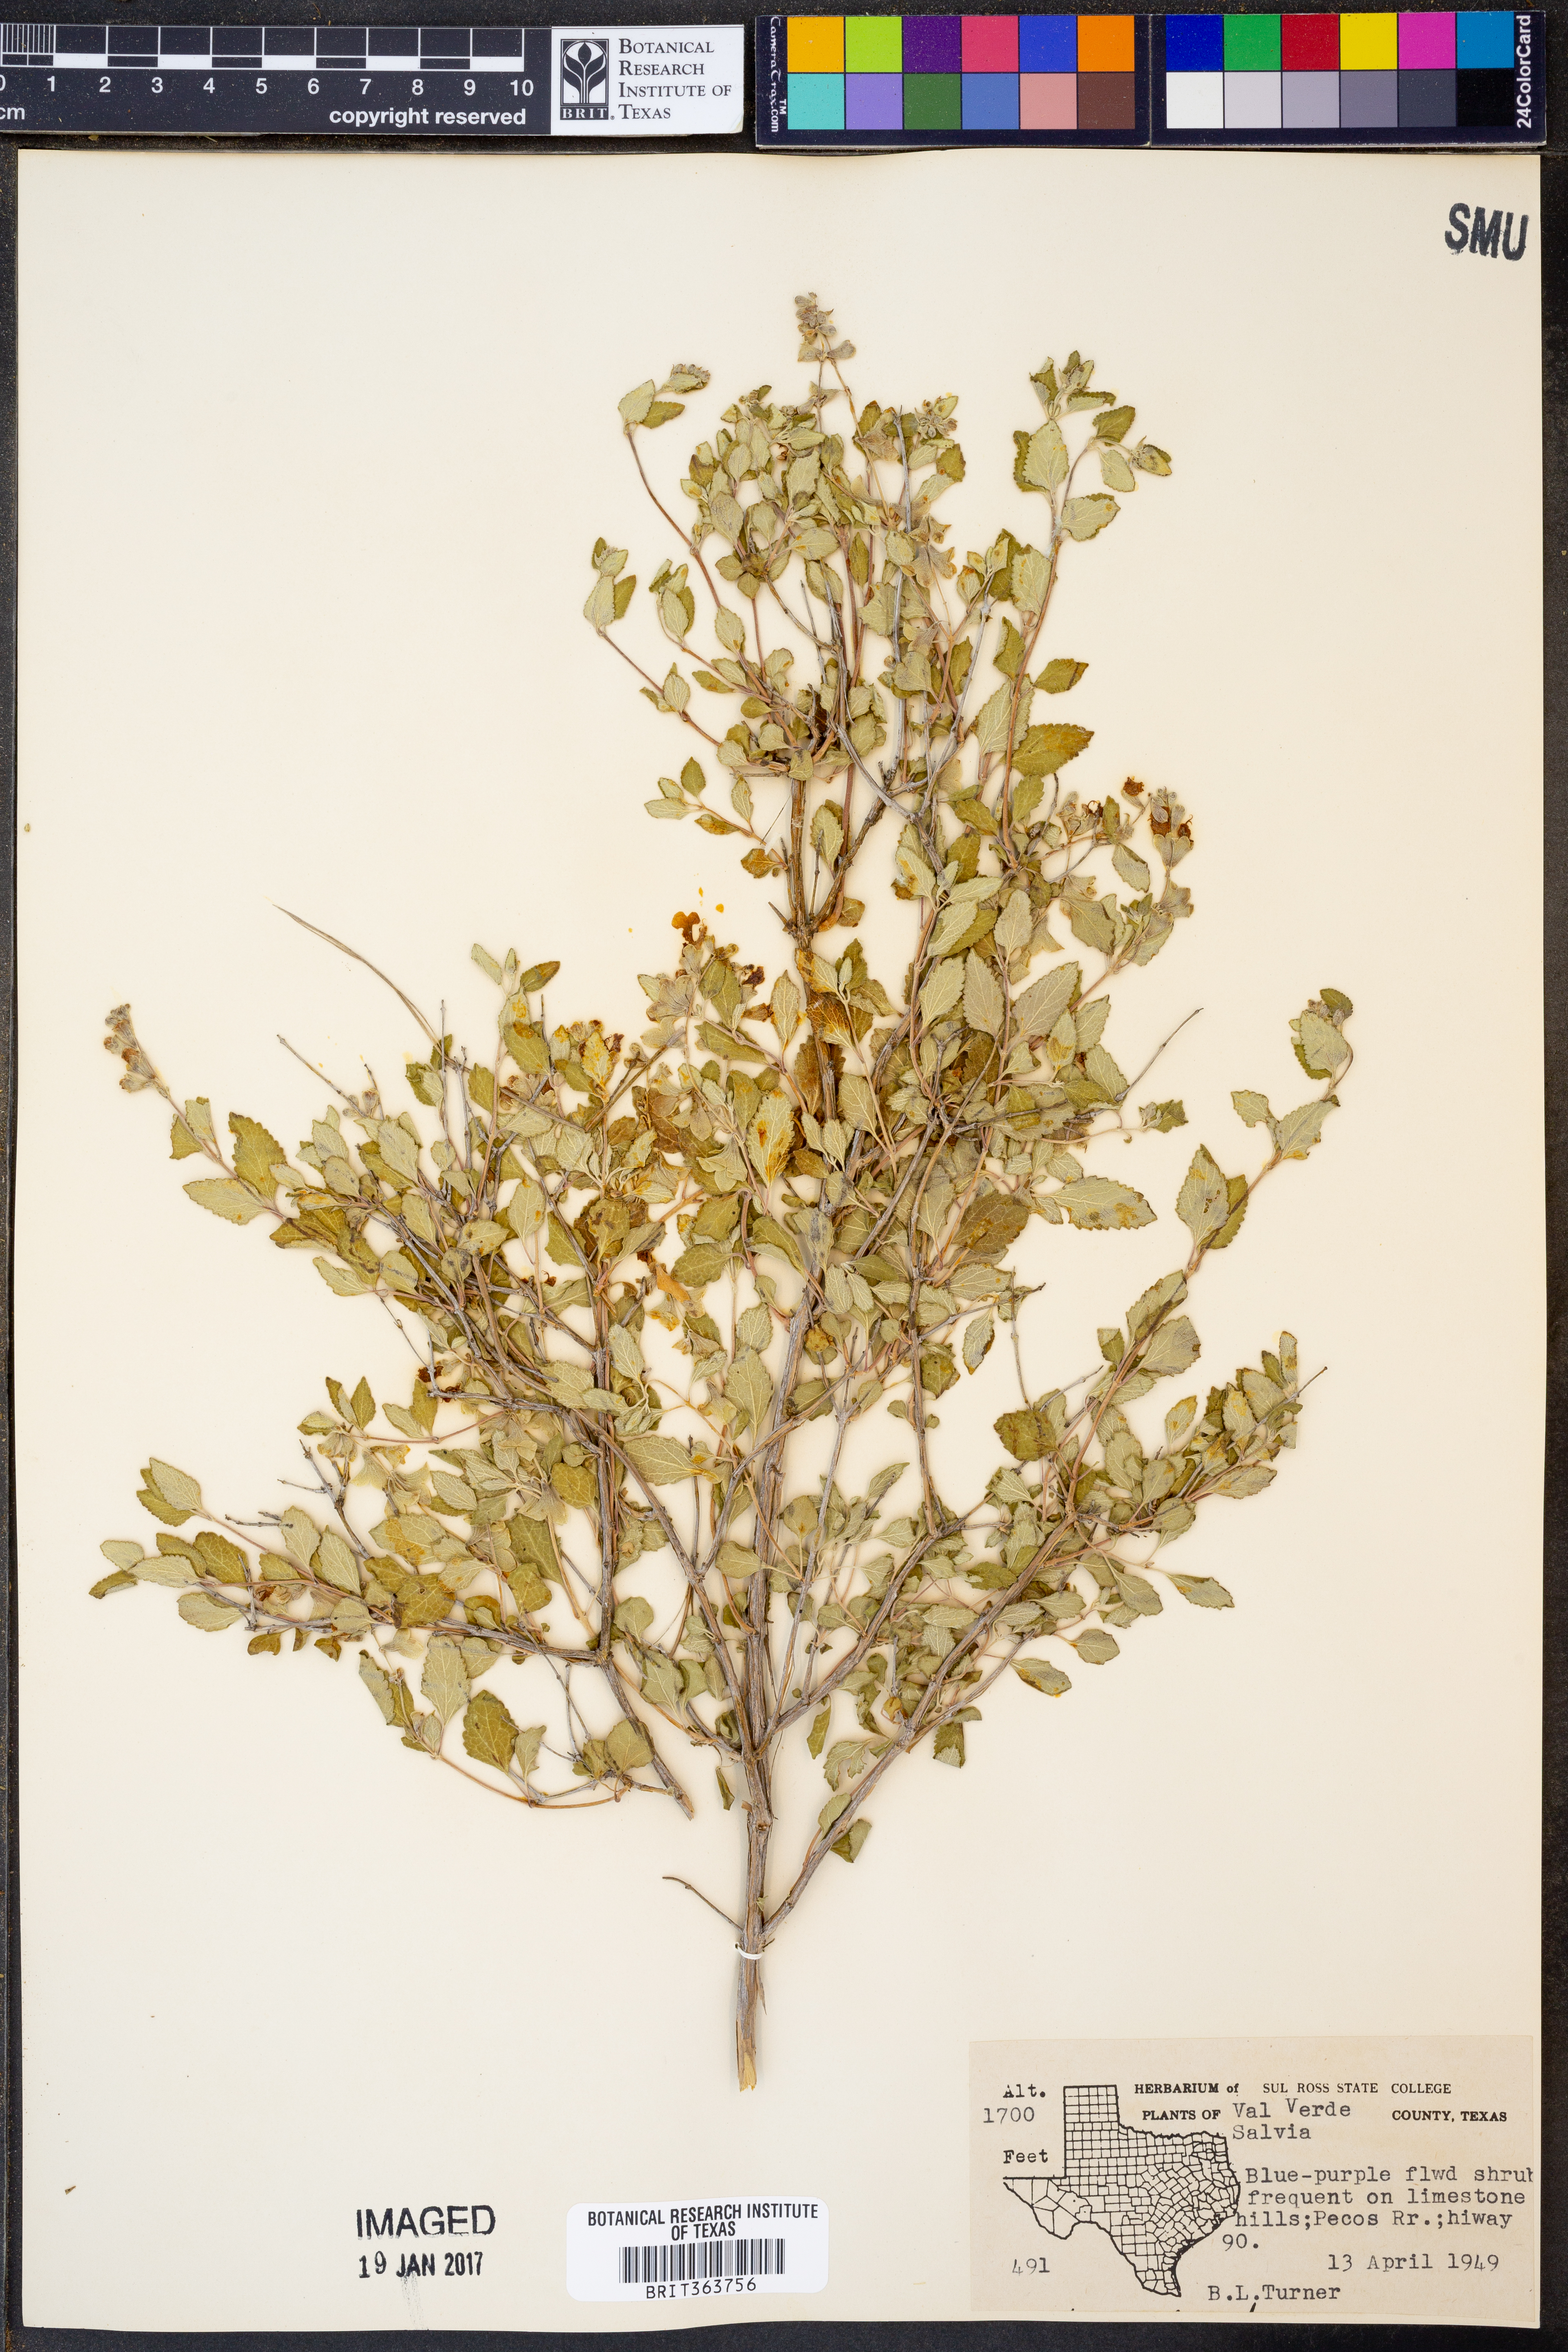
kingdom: Plantae
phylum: Tracheophyta
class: Magnoliopsida
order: Lamiales
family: Lamiaceae
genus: Salvia
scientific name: Salvia
